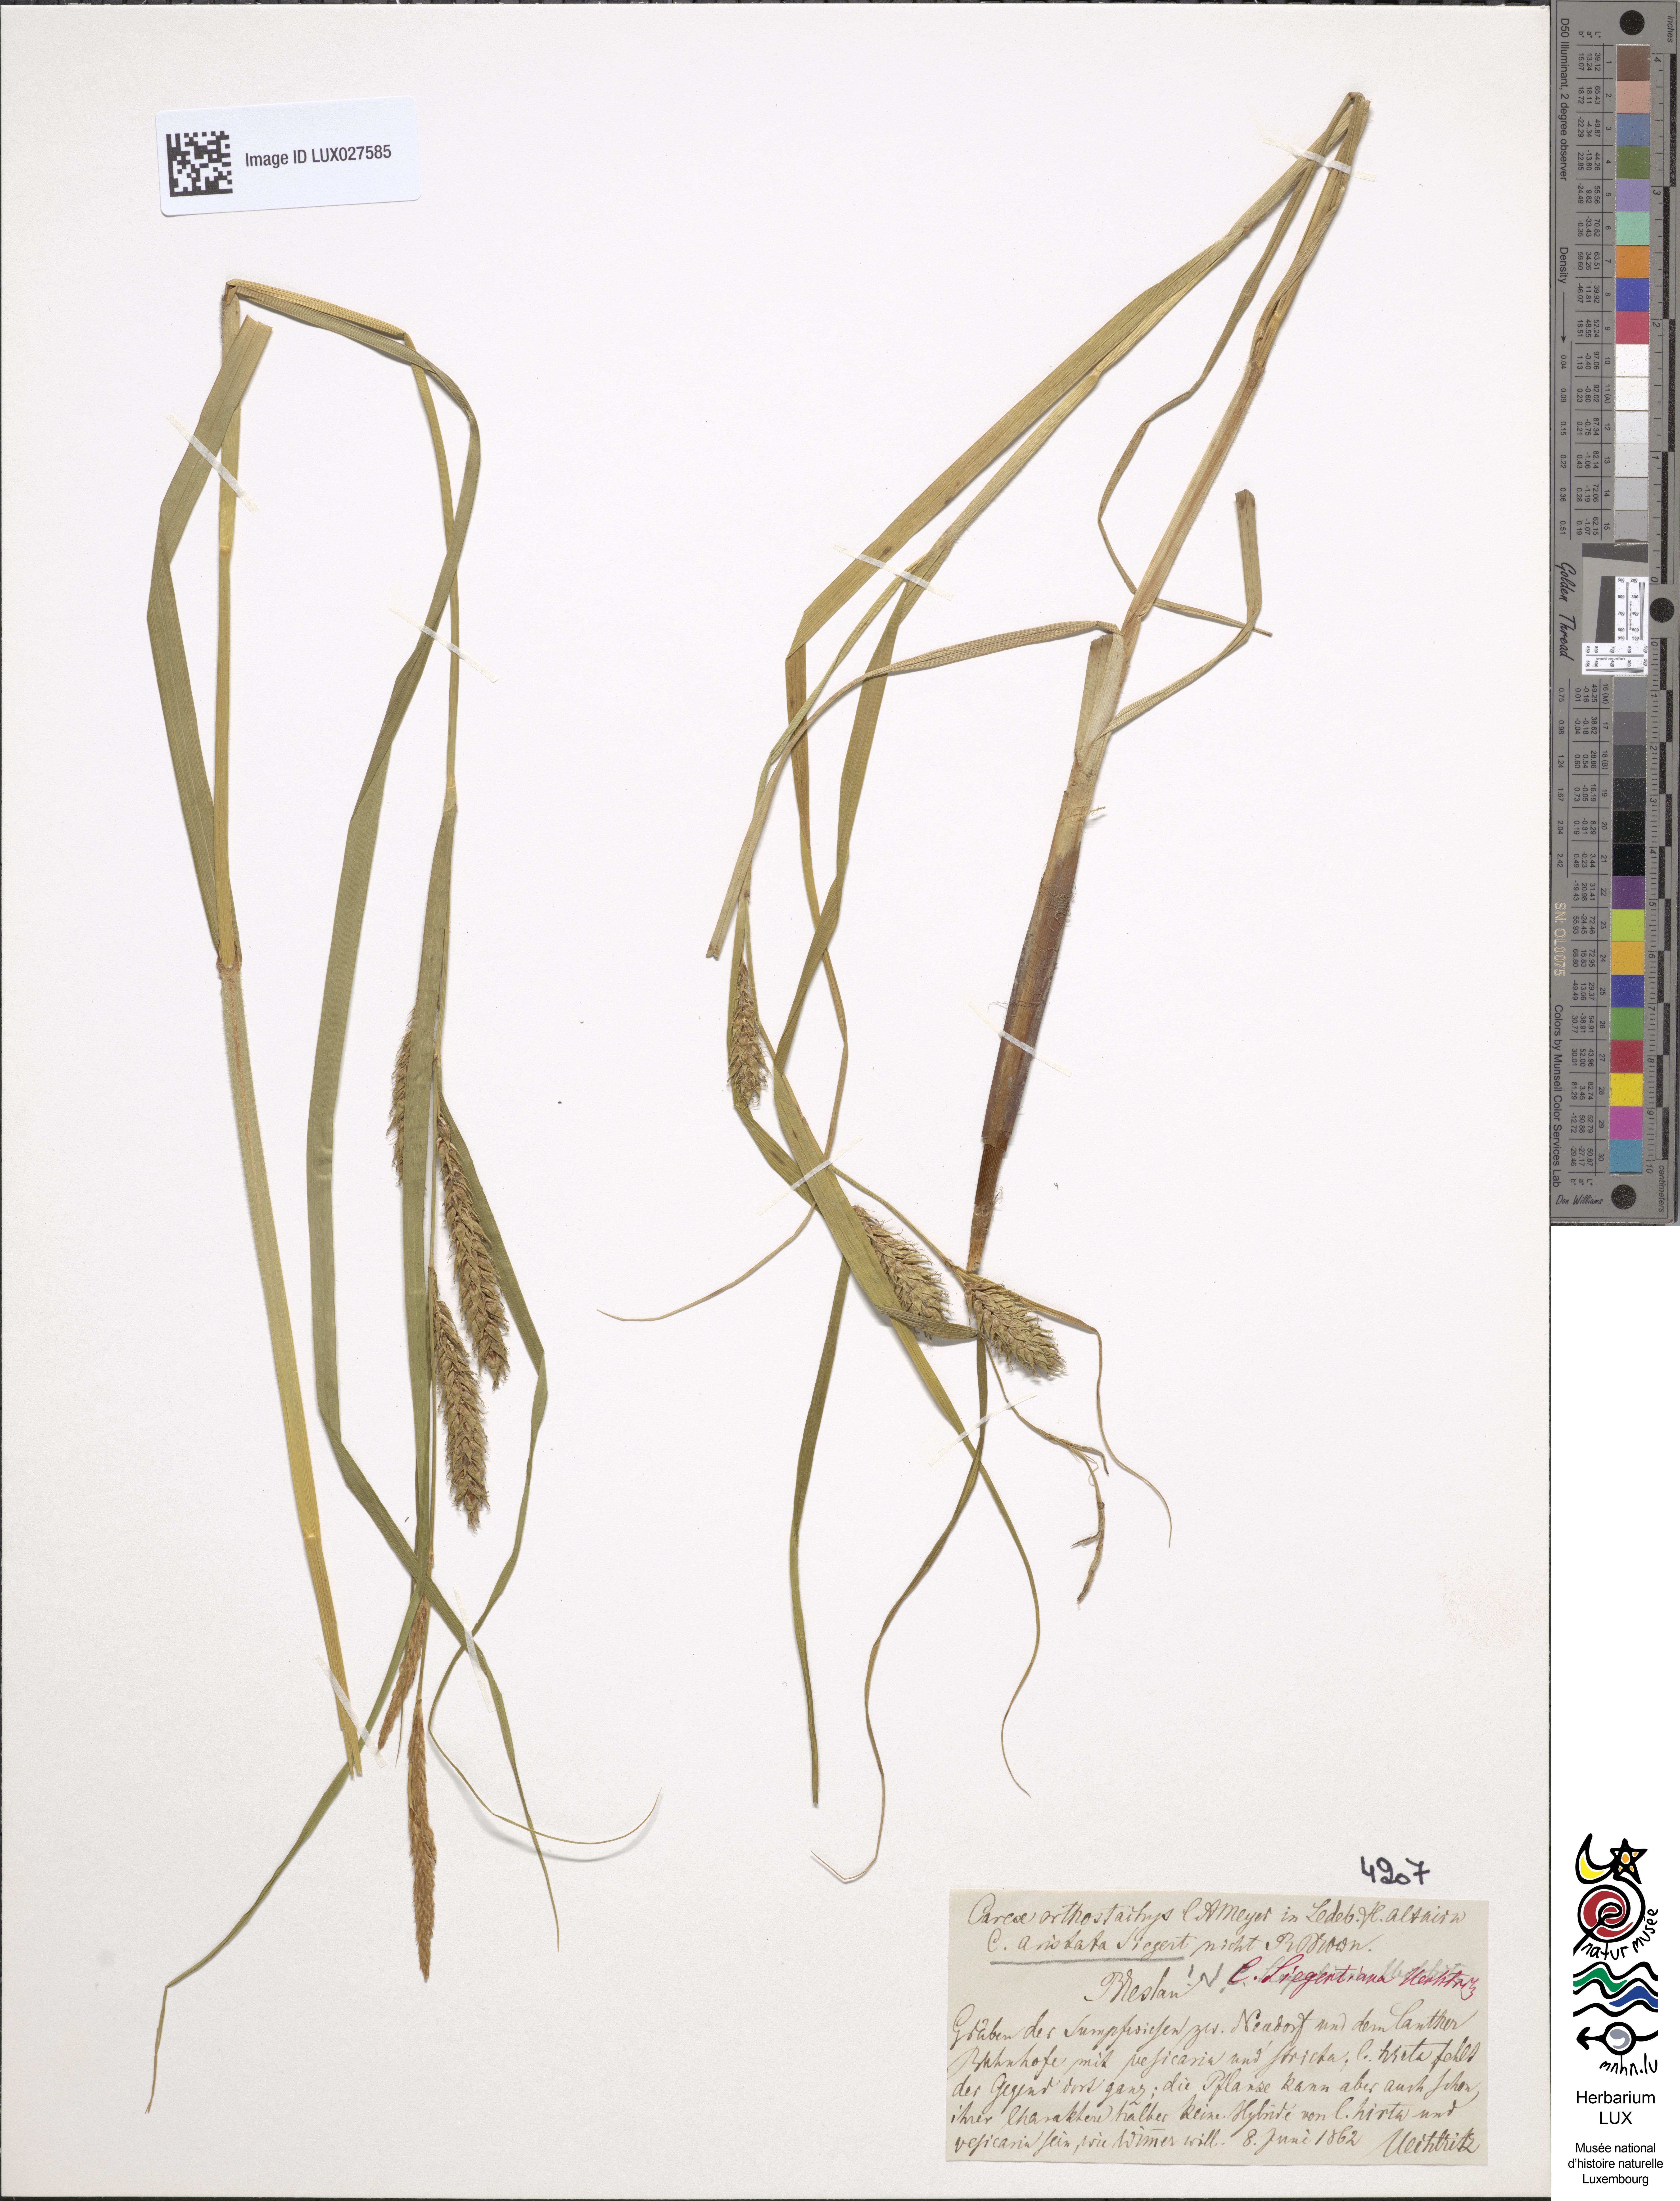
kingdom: Plantae
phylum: Tracheophyta
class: Liliopsida
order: Poales
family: Cyperaceae
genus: Carex
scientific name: Carex atherodes
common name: Wheat sedge
